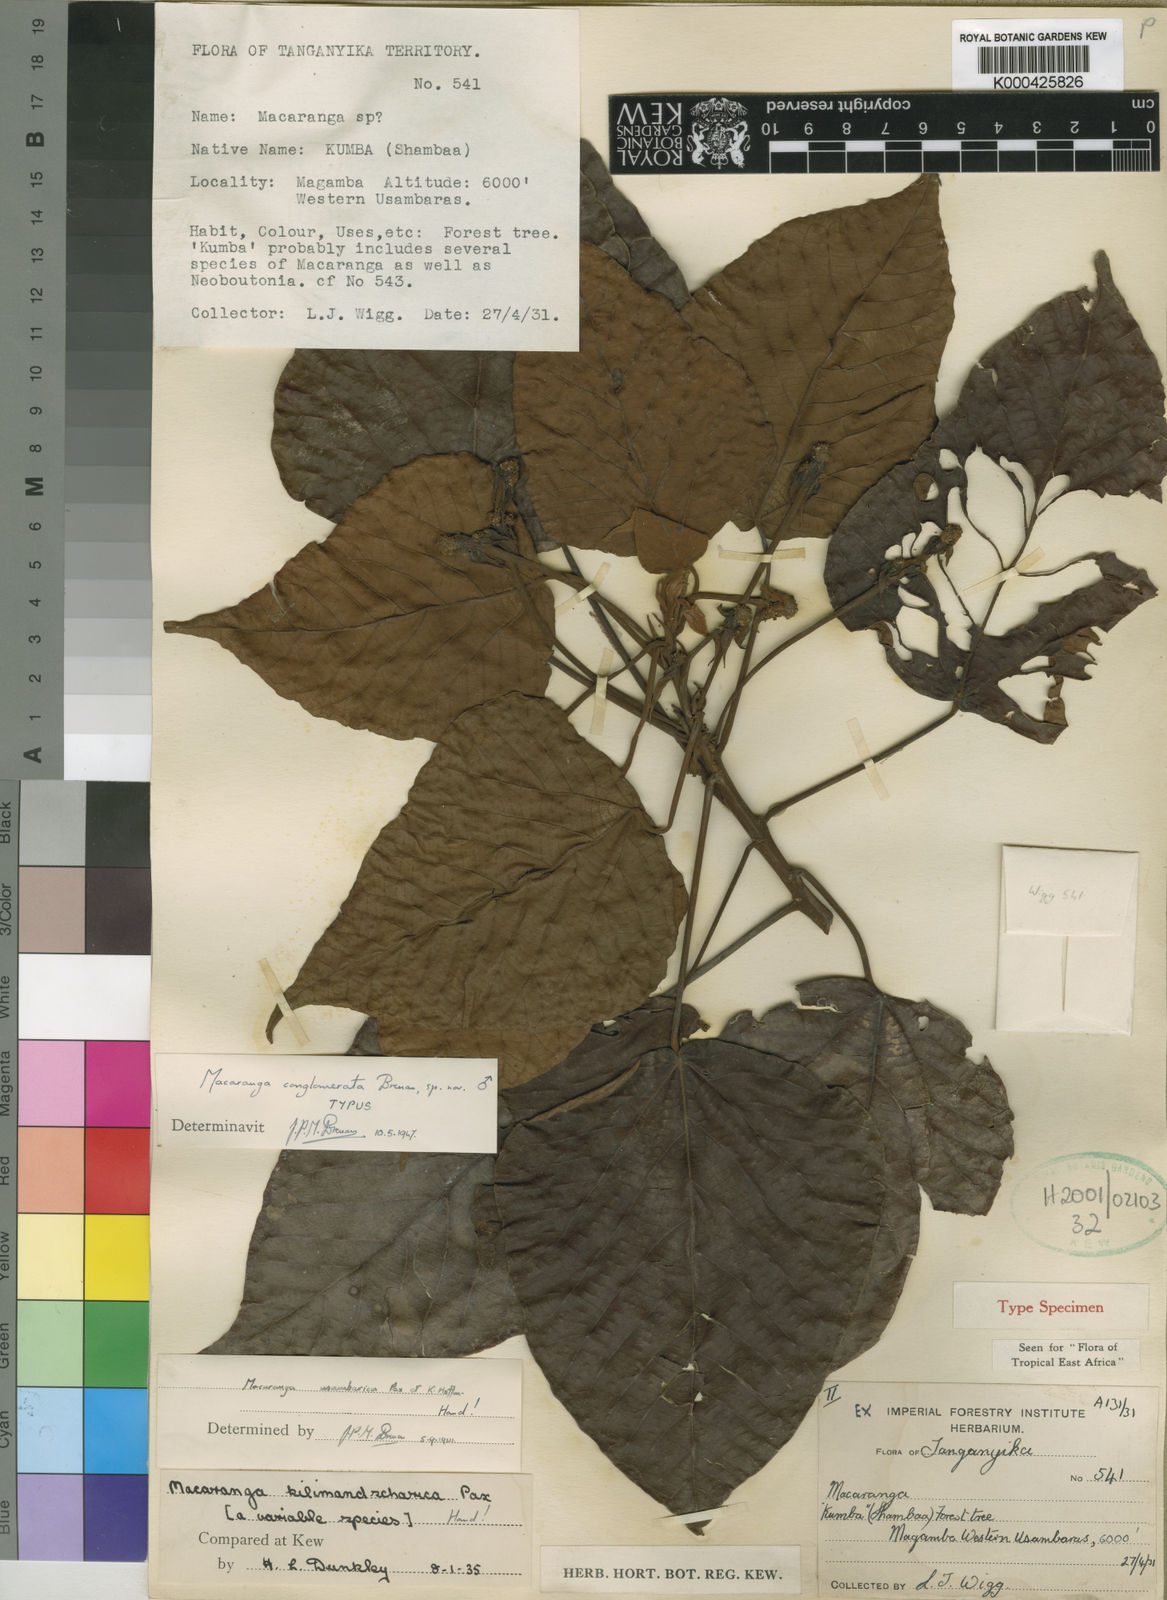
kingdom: Plantae
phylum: Tracheophyta
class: Magnoliopsida
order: Malpighiales
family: Euphorbiaceae
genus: Macaranga
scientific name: Macaranga conglomerata
